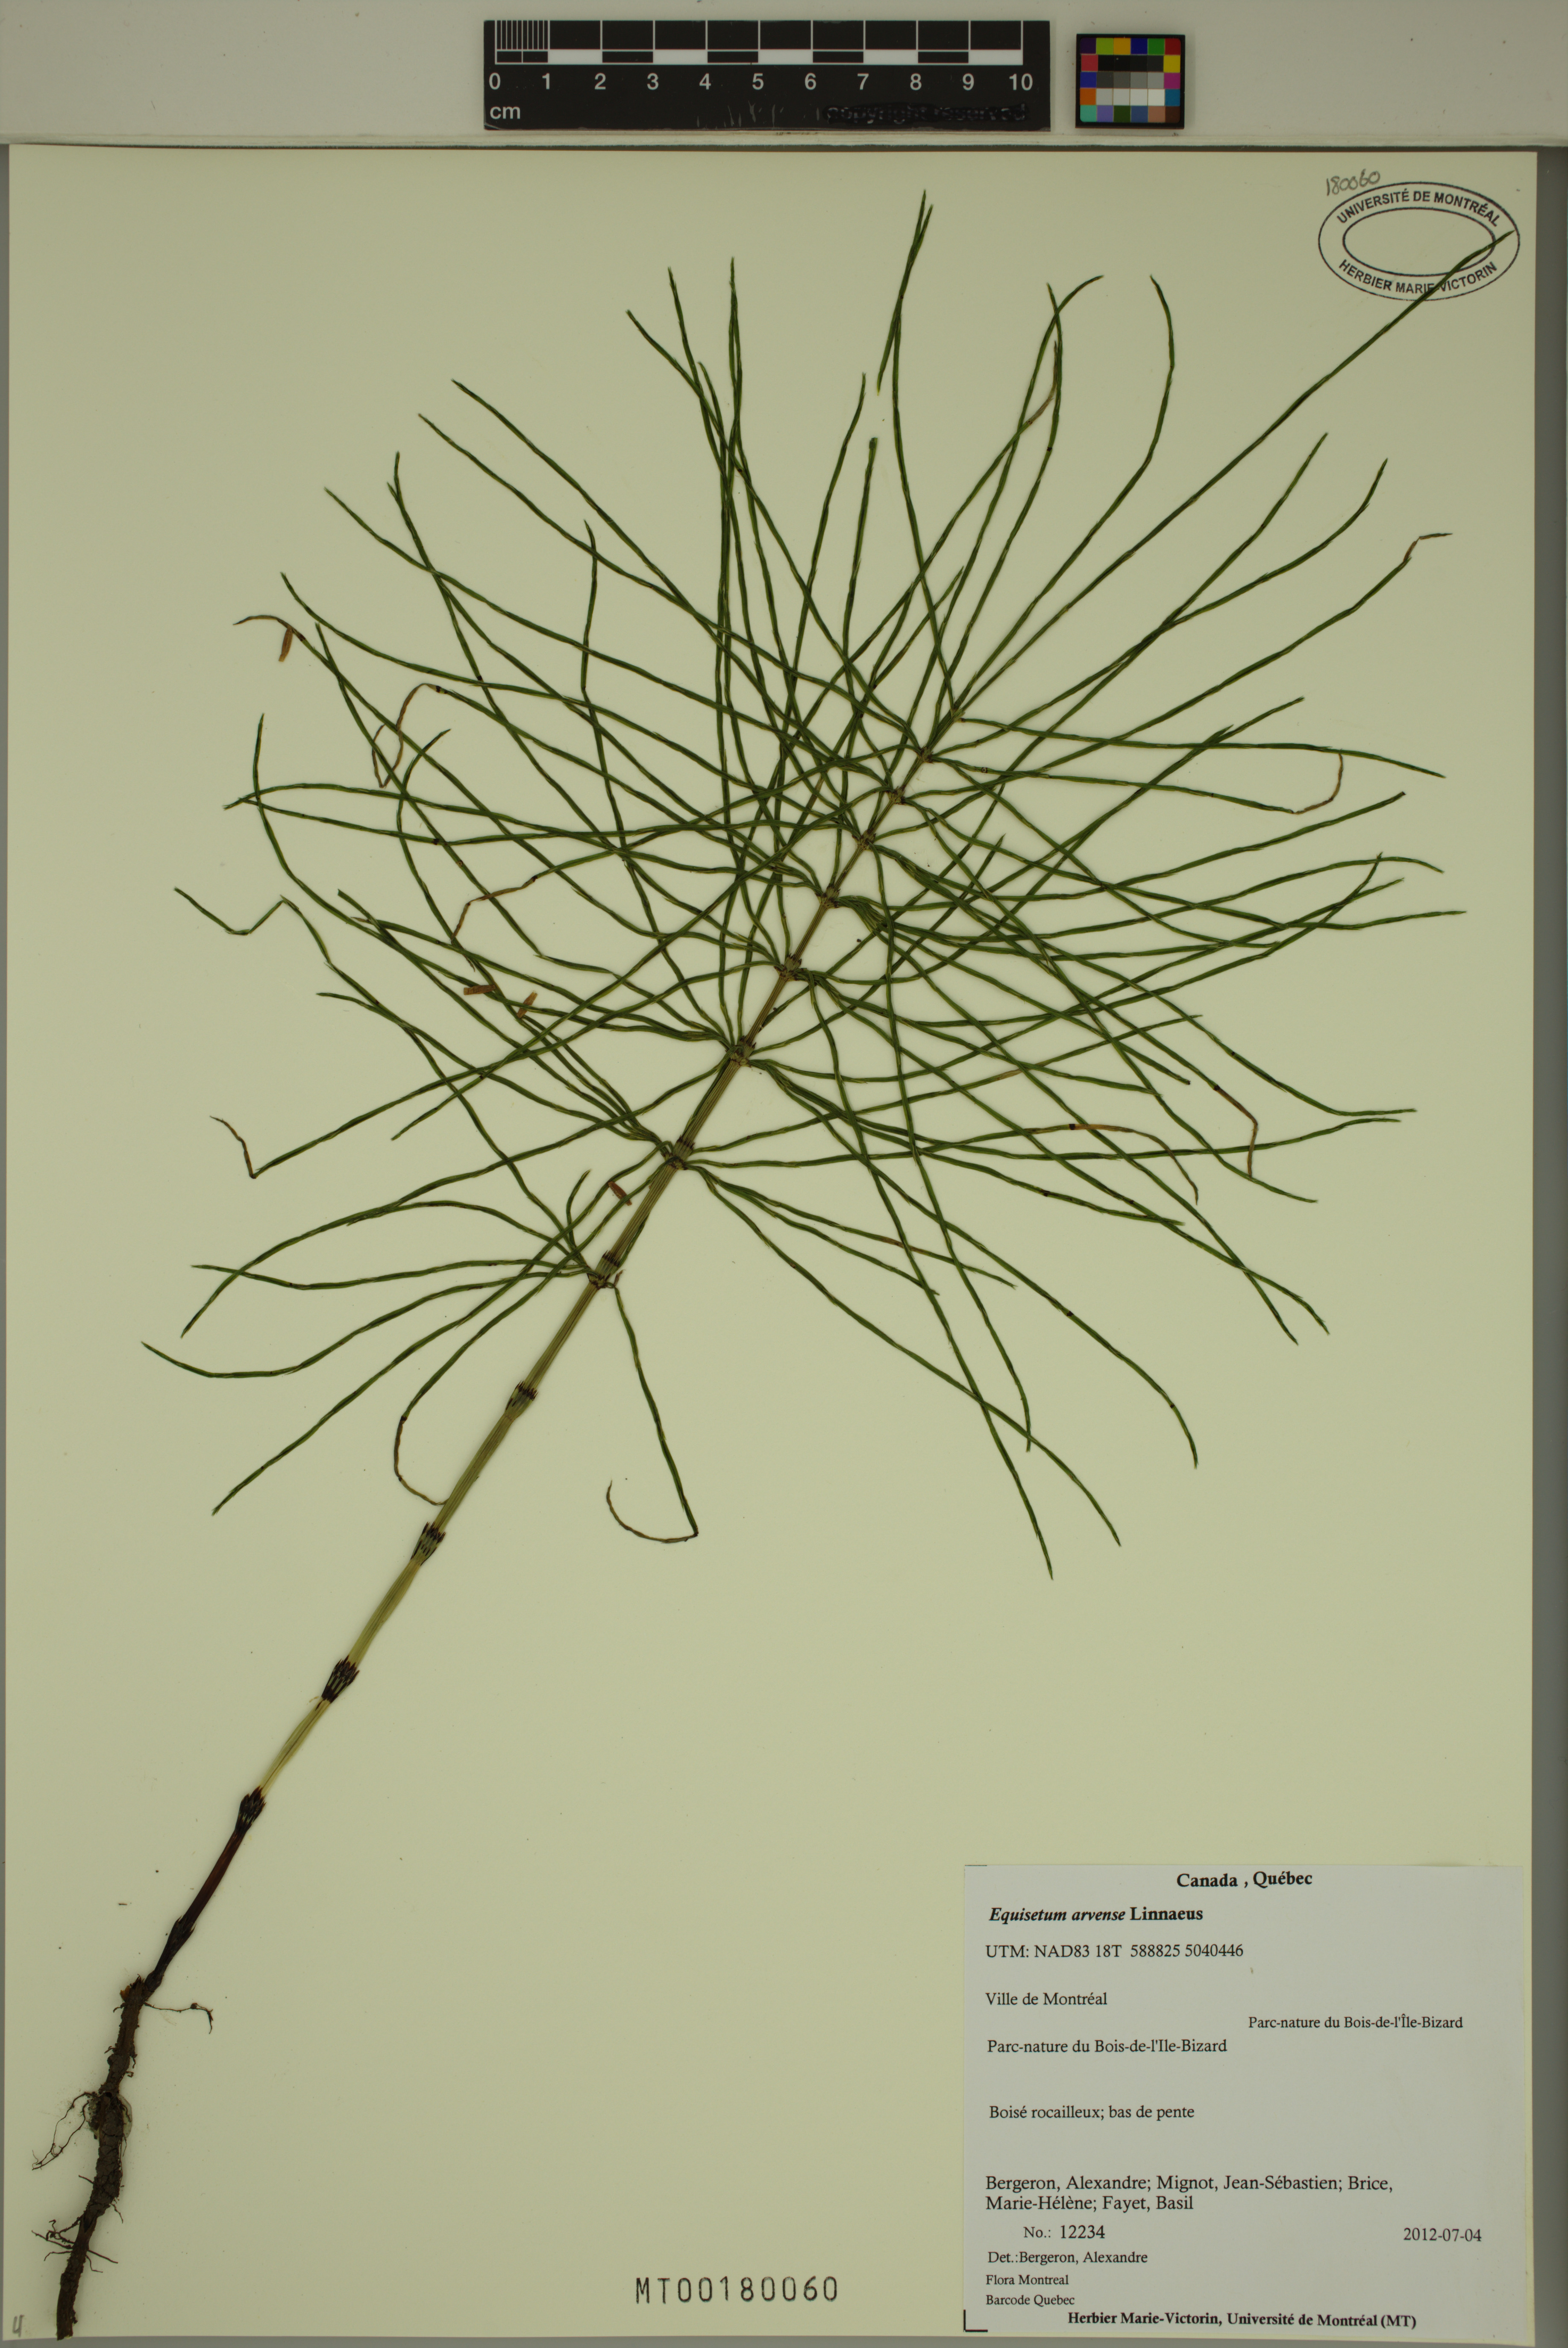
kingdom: Plantae
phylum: Tracheophyta
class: Polypodiopsida
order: Equisetales
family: Equisetaceae
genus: Equisetum
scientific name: Equisetum arvense
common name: Field horsetail
